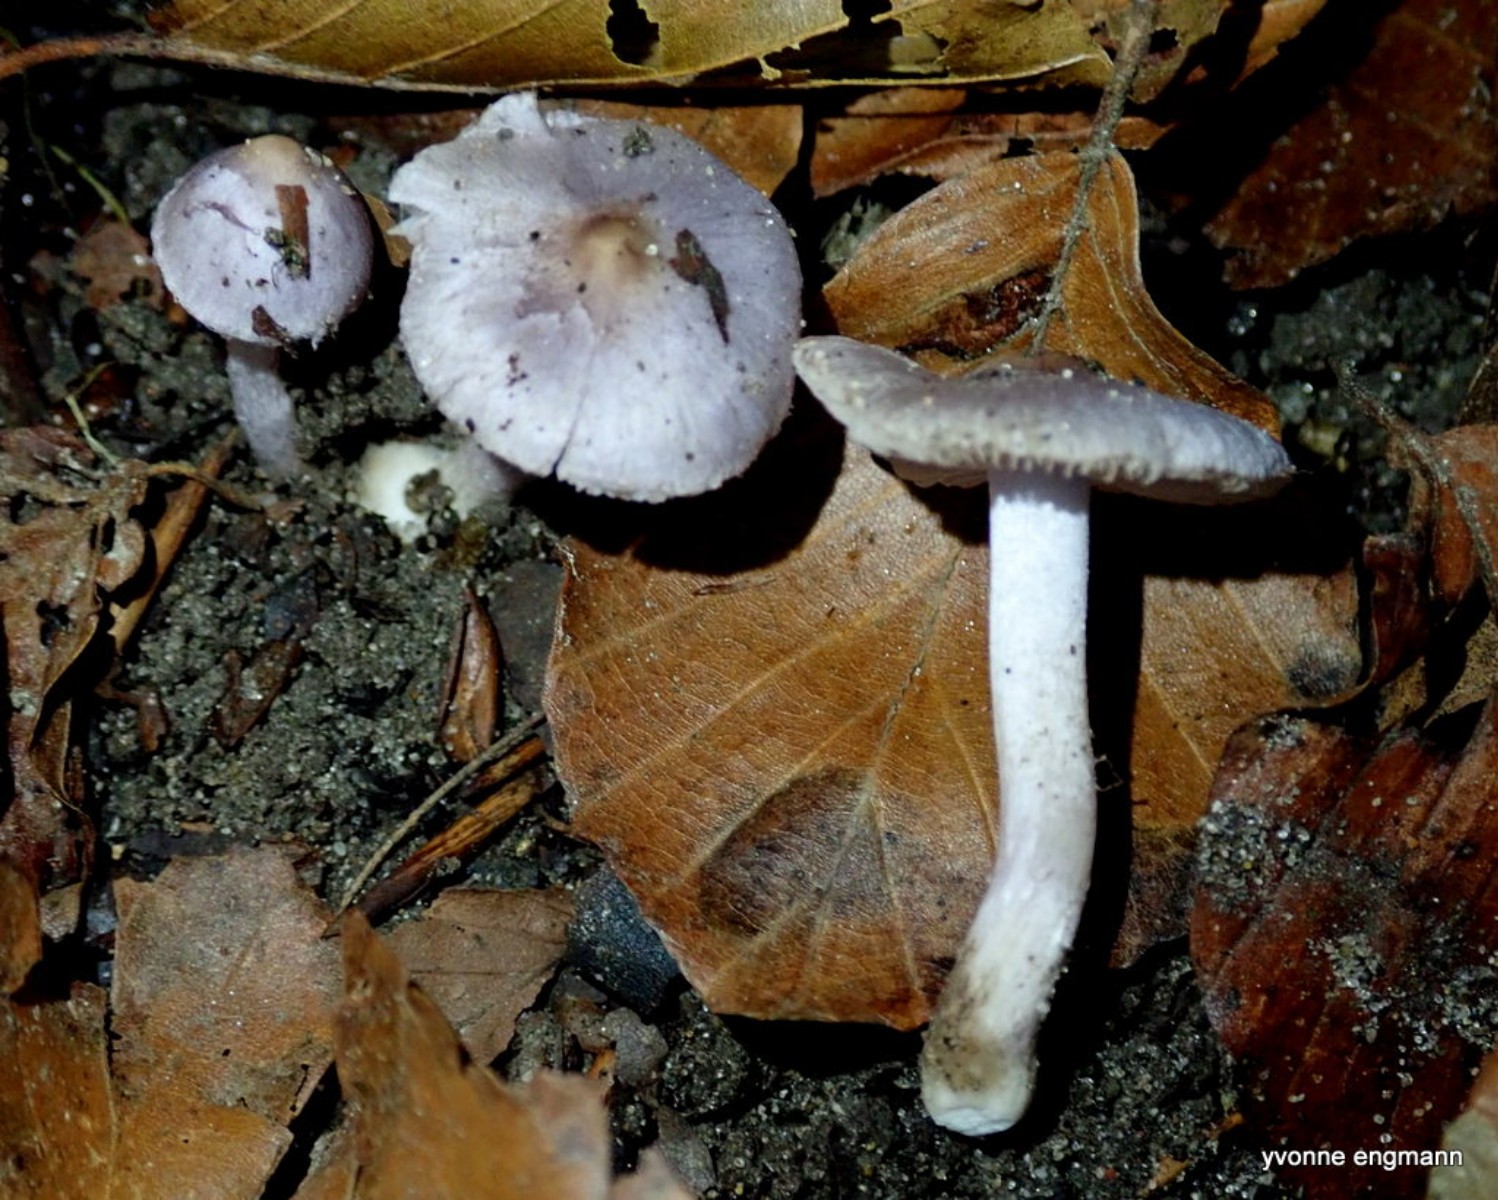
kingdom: Fungi
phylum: Basidiomycota
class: Agaricomycetes
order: Agaricales
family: Inocybaceae
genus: Inocybe
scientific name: Inocybe geophylla
